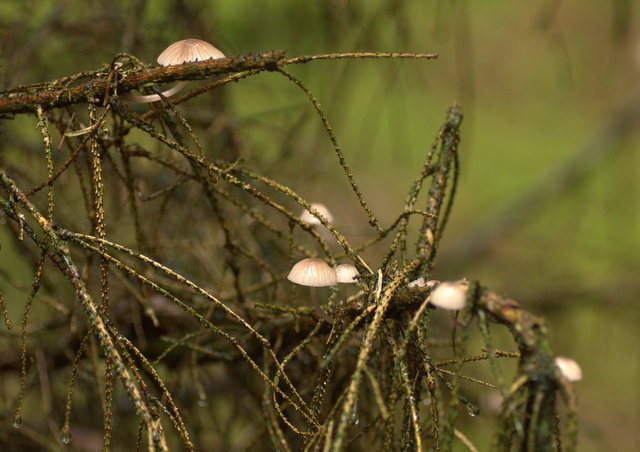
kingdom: Fungi
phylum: Basidiomycota
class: Agaricomycetes
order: Agaricales
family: Mycenaceae
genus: Mycena
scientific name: Mycena rubromarginata
